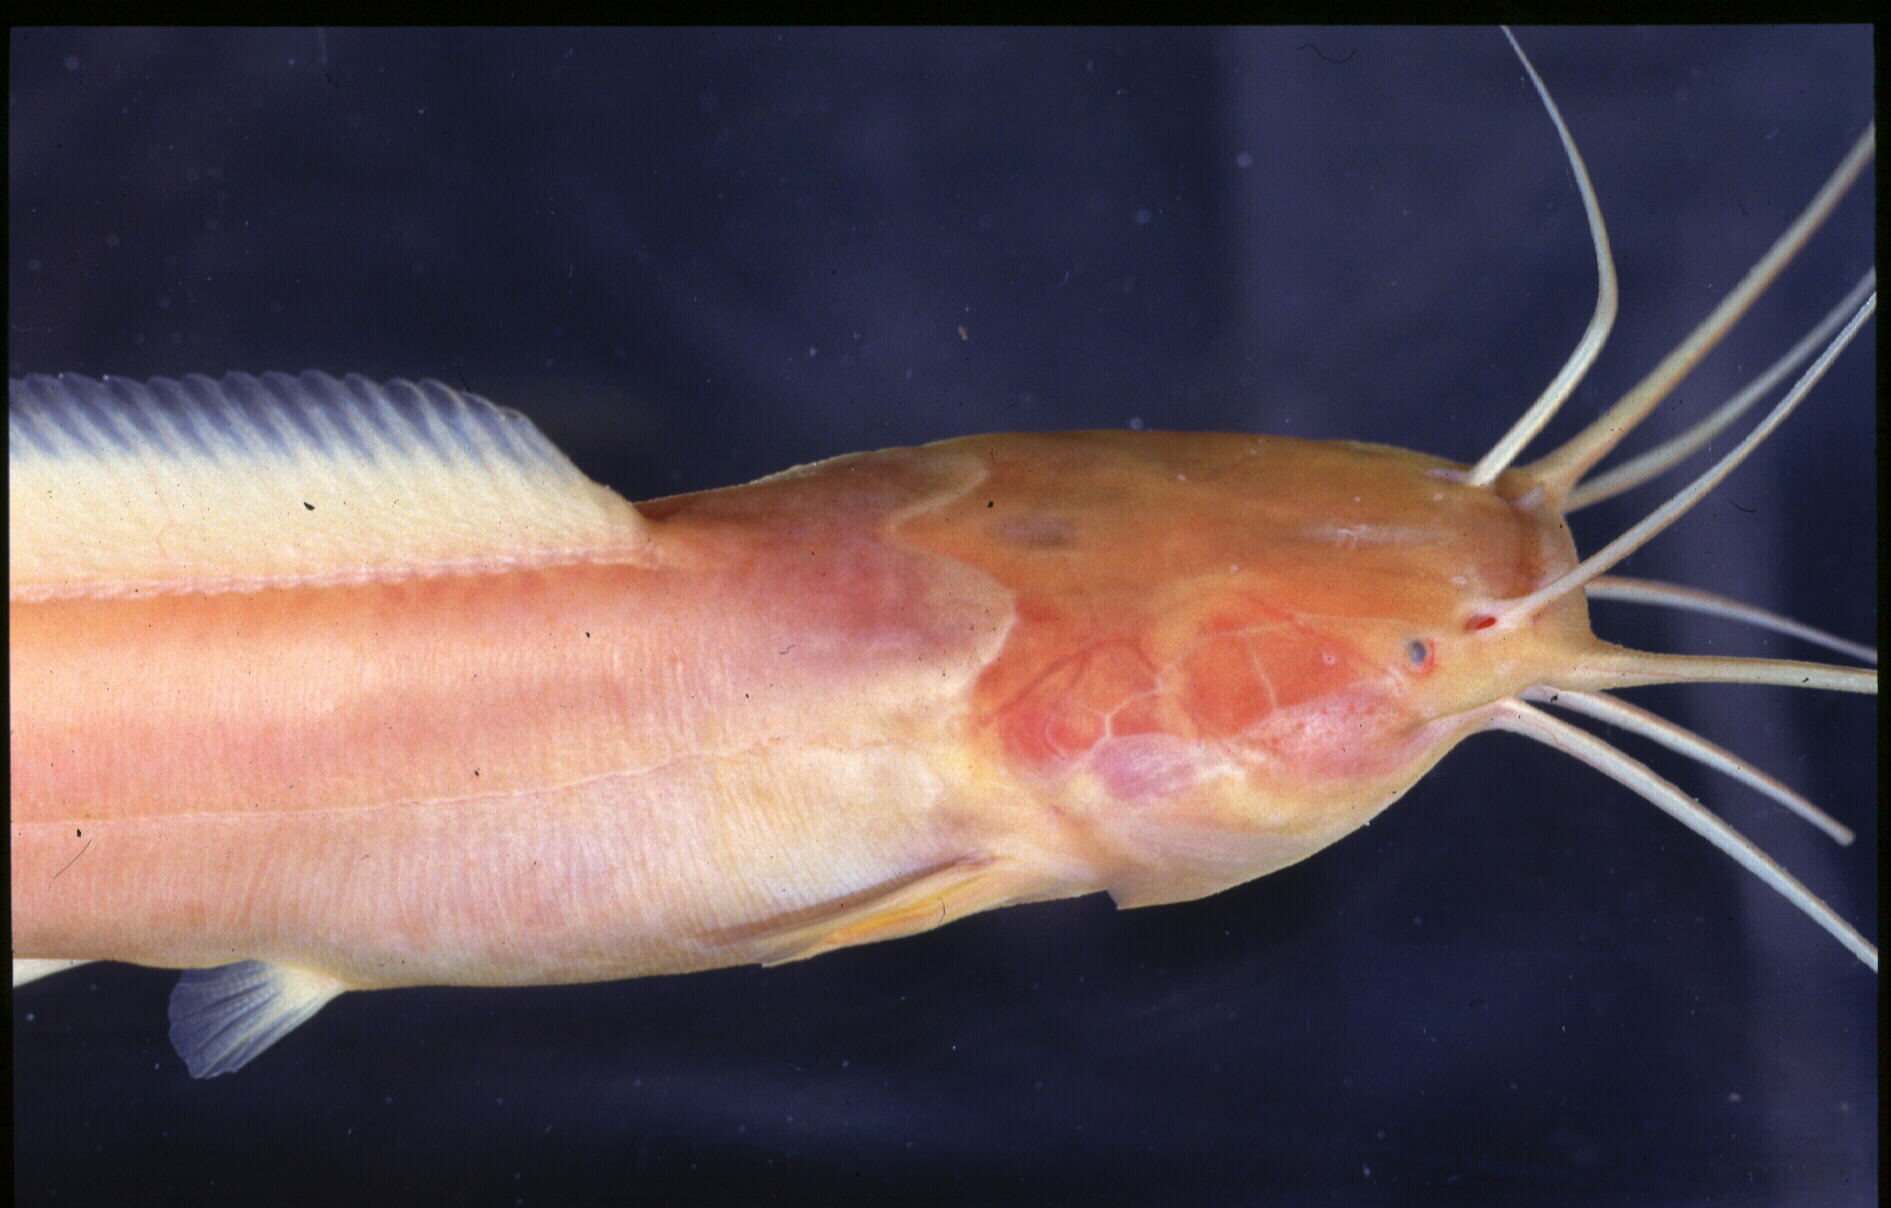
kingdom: Animalia
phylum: Chordata
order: Siluriformes
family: Clariidae
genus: Clarias
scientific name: Clarias cavernicola
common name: Cave catfish
